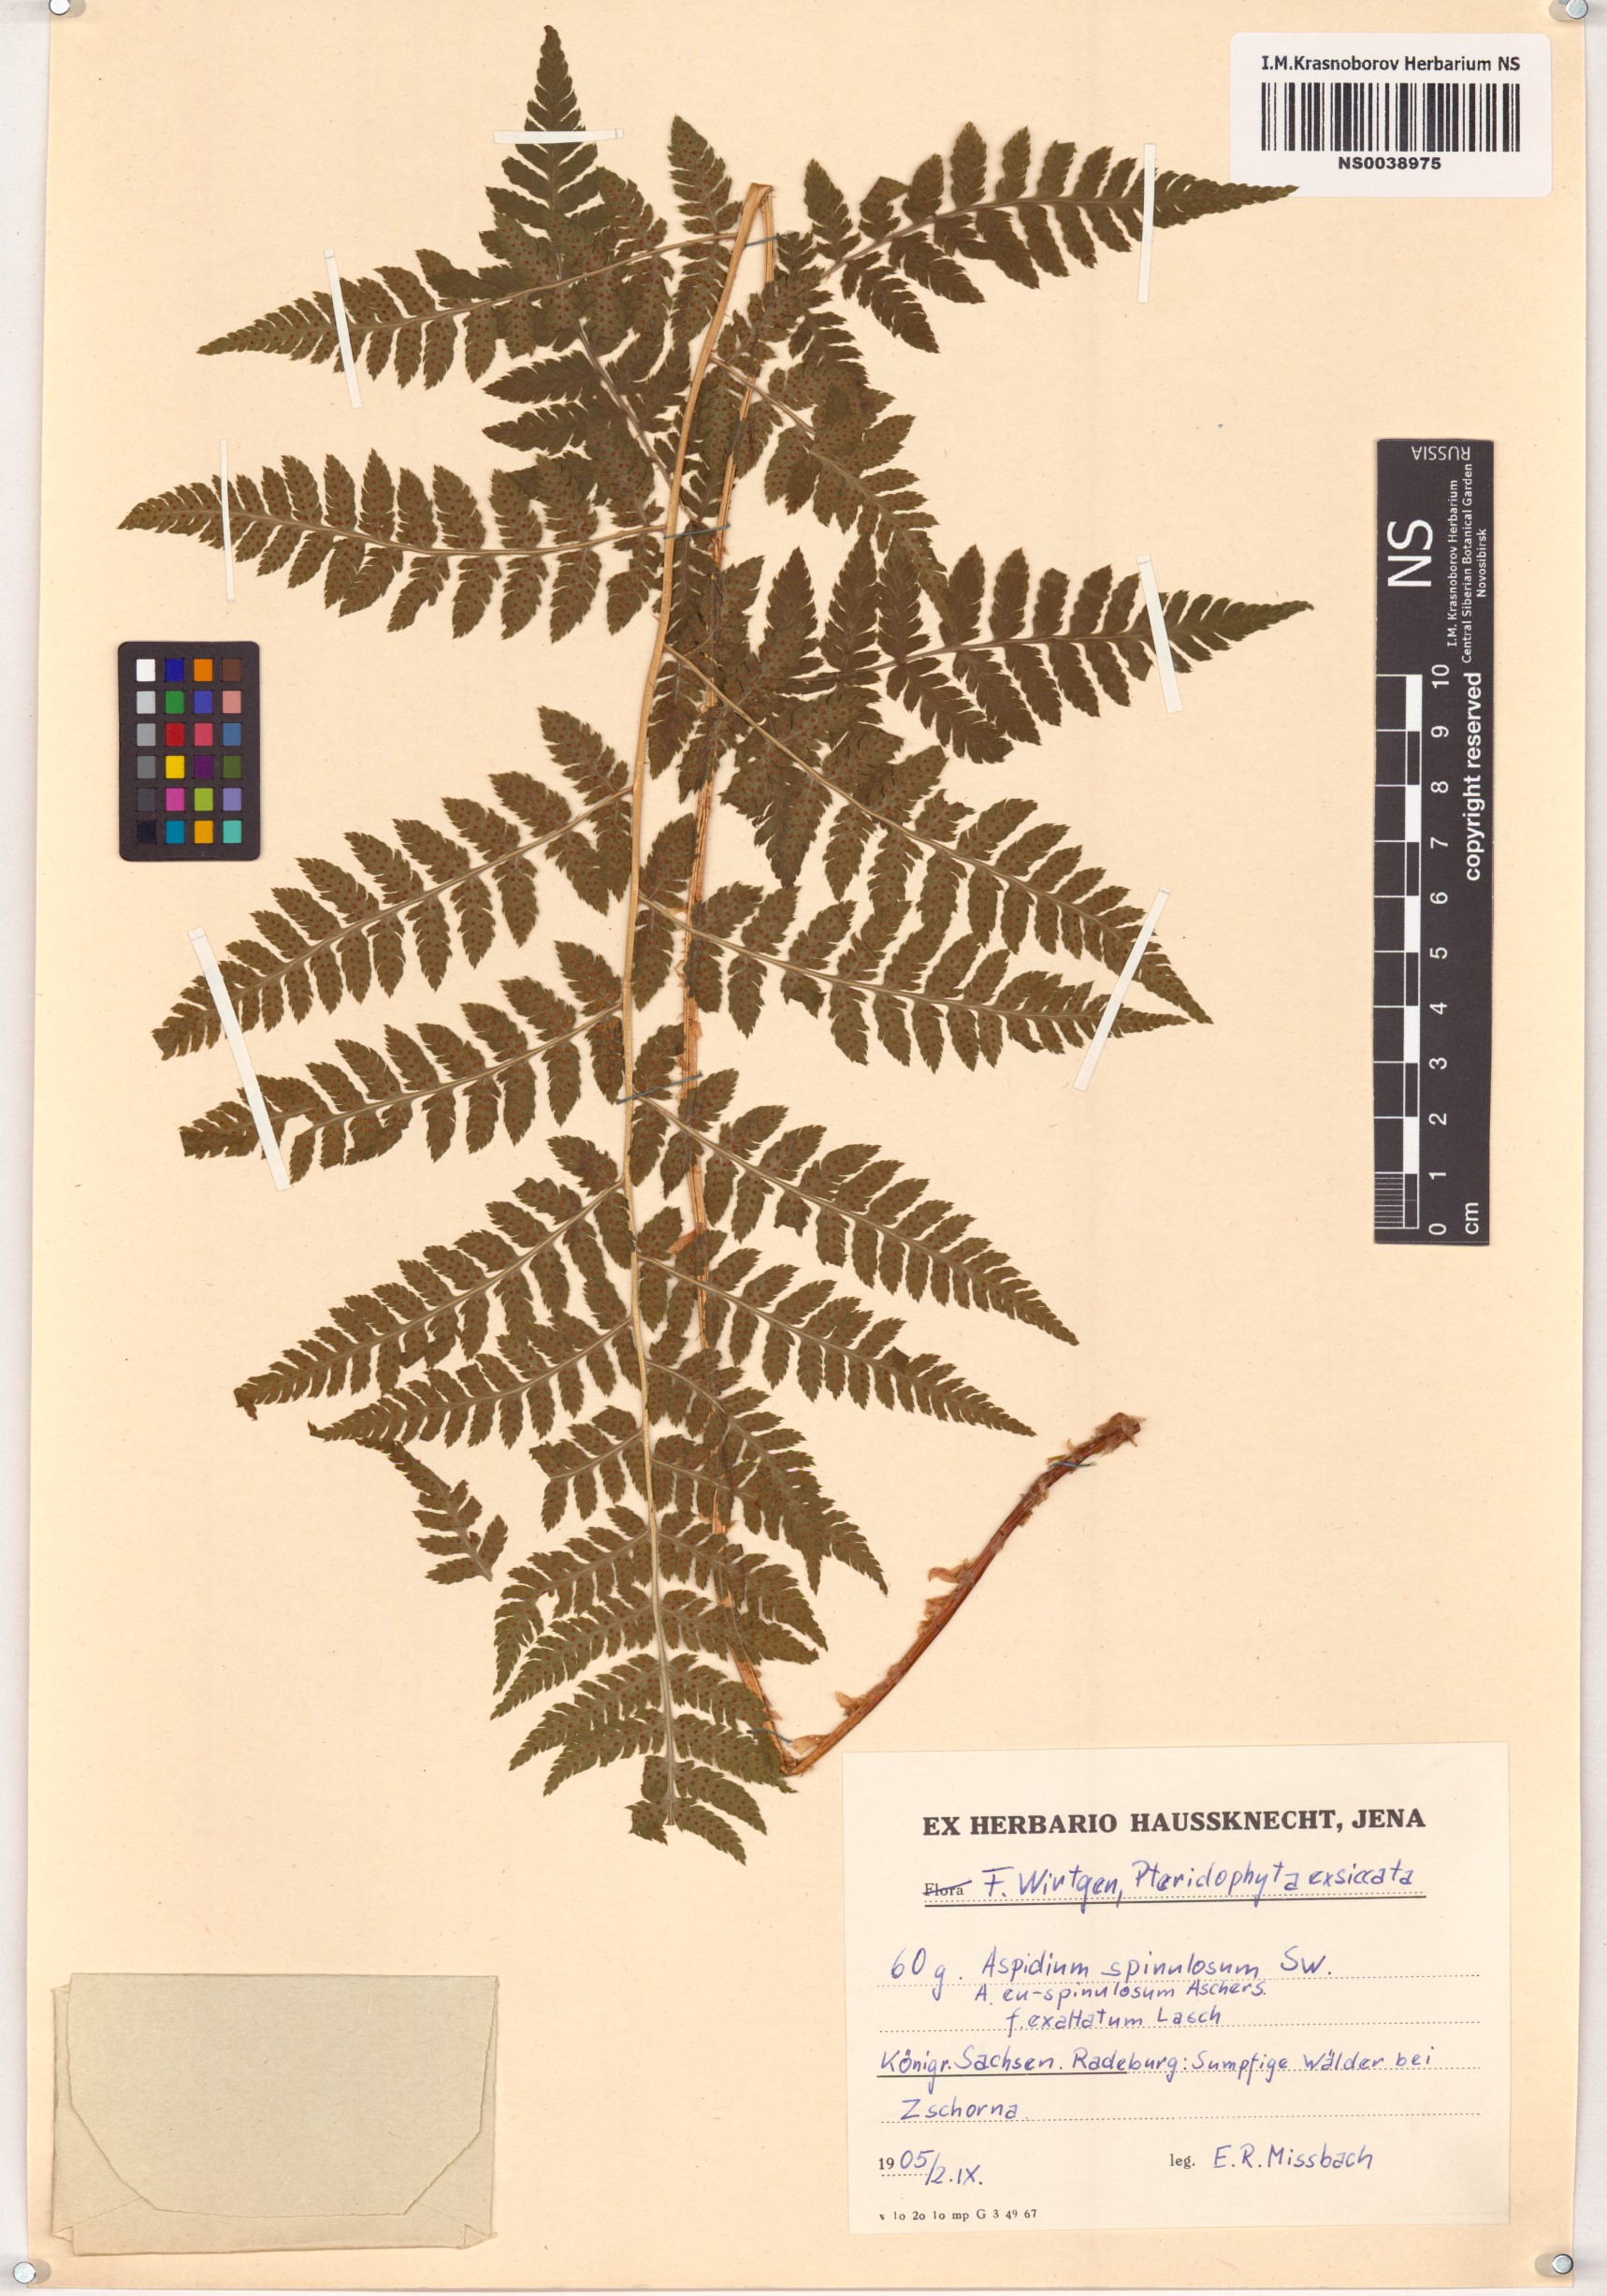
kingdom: Plantae
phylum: Tracheophyta
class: Polypodiopsida
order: Polypodiales
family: Dryopteridaceae
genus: Dryopteris
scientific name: Dryopteris carthusiana
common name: Narrow buckler-fern
